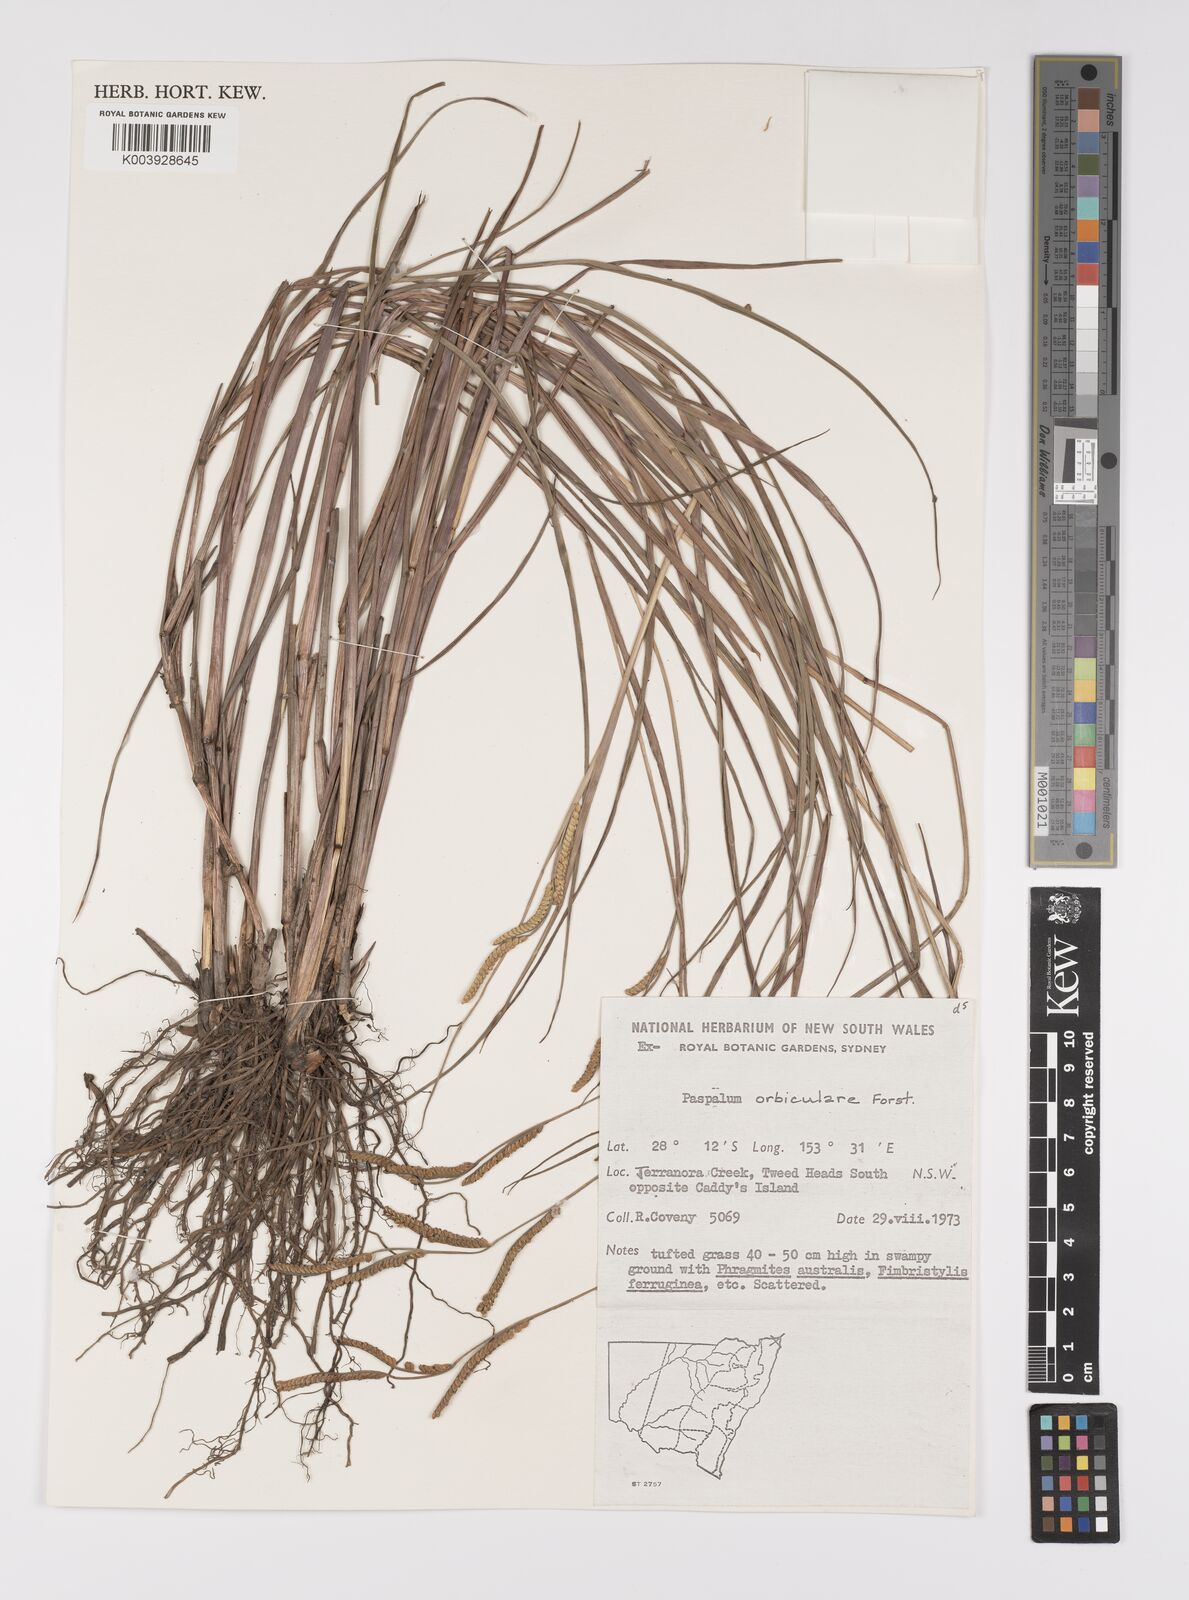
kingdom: Plantae
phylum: Tracheophyta
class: Liliopsida
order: Poales
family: Poaceae
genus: Paspalum
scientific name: Paspalum scrobiculatum
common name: Kodo millet
